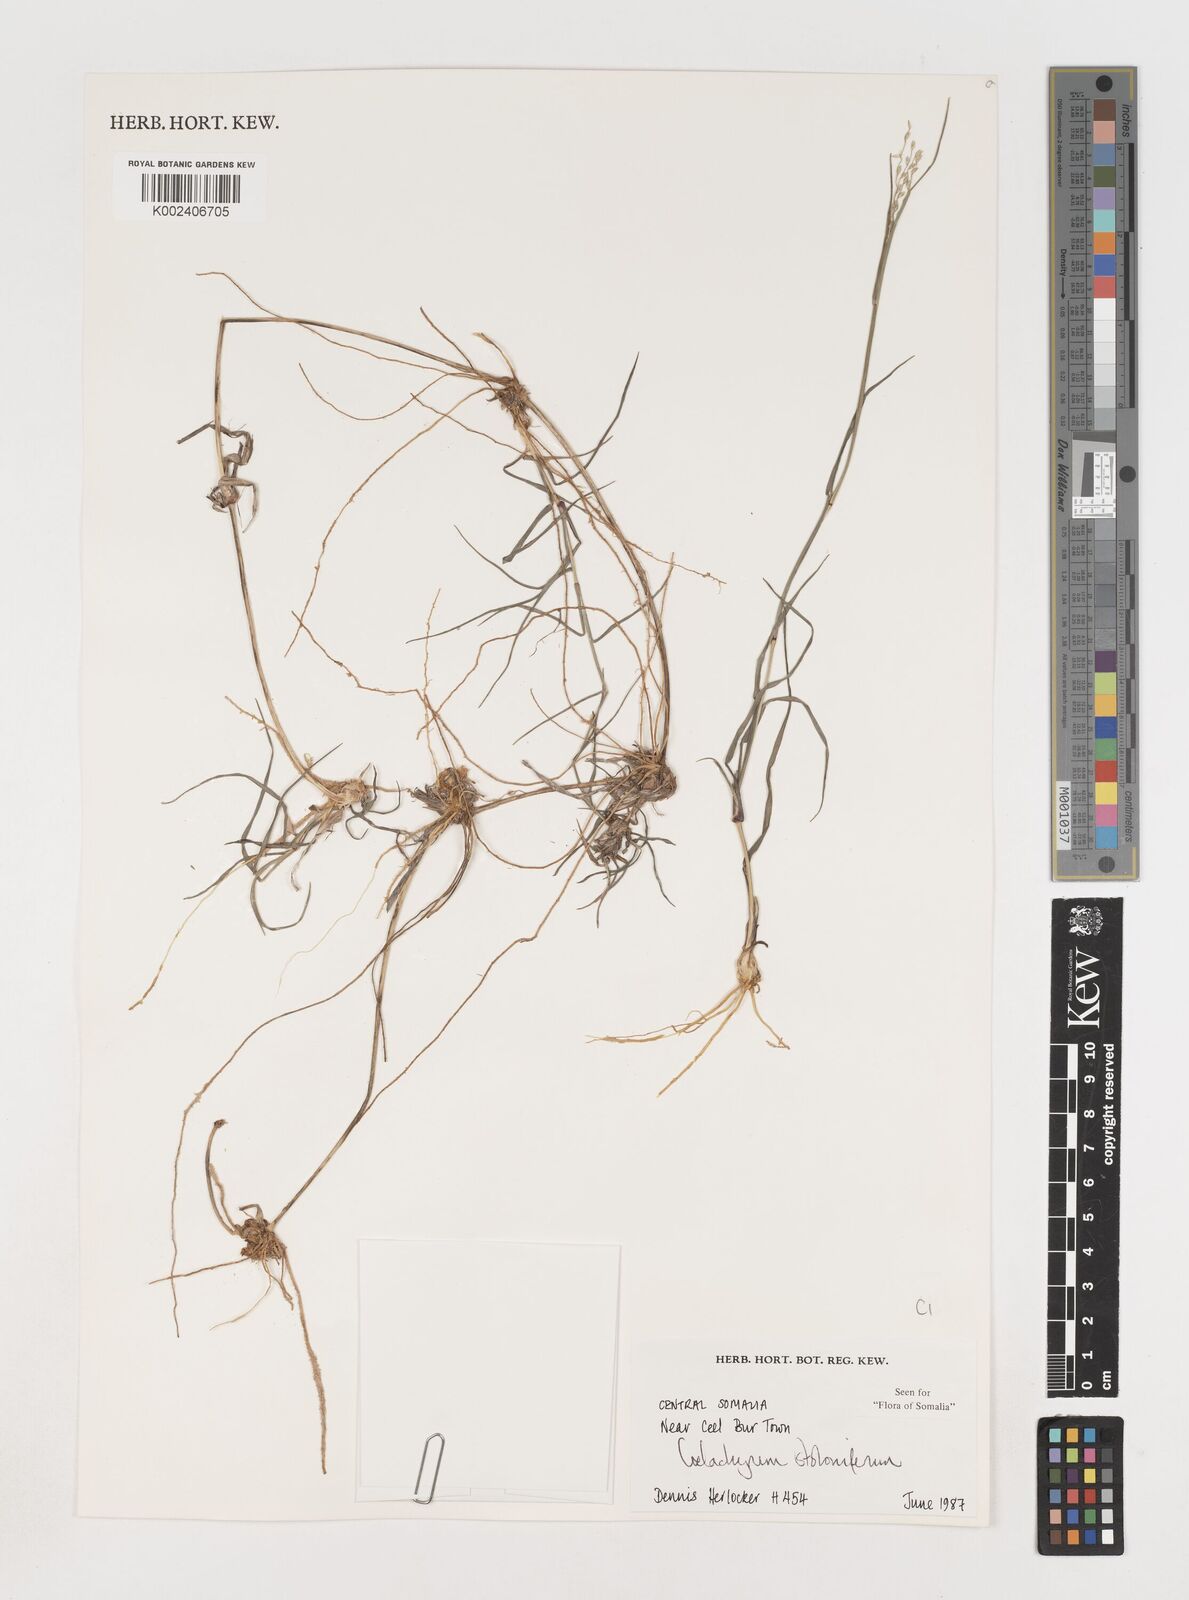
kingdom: Plantae
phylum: Tracheophyta
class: Liliopsida
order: Poales
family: Poaceae
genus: Coelachyrum
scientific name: Coelachyrum piercei
